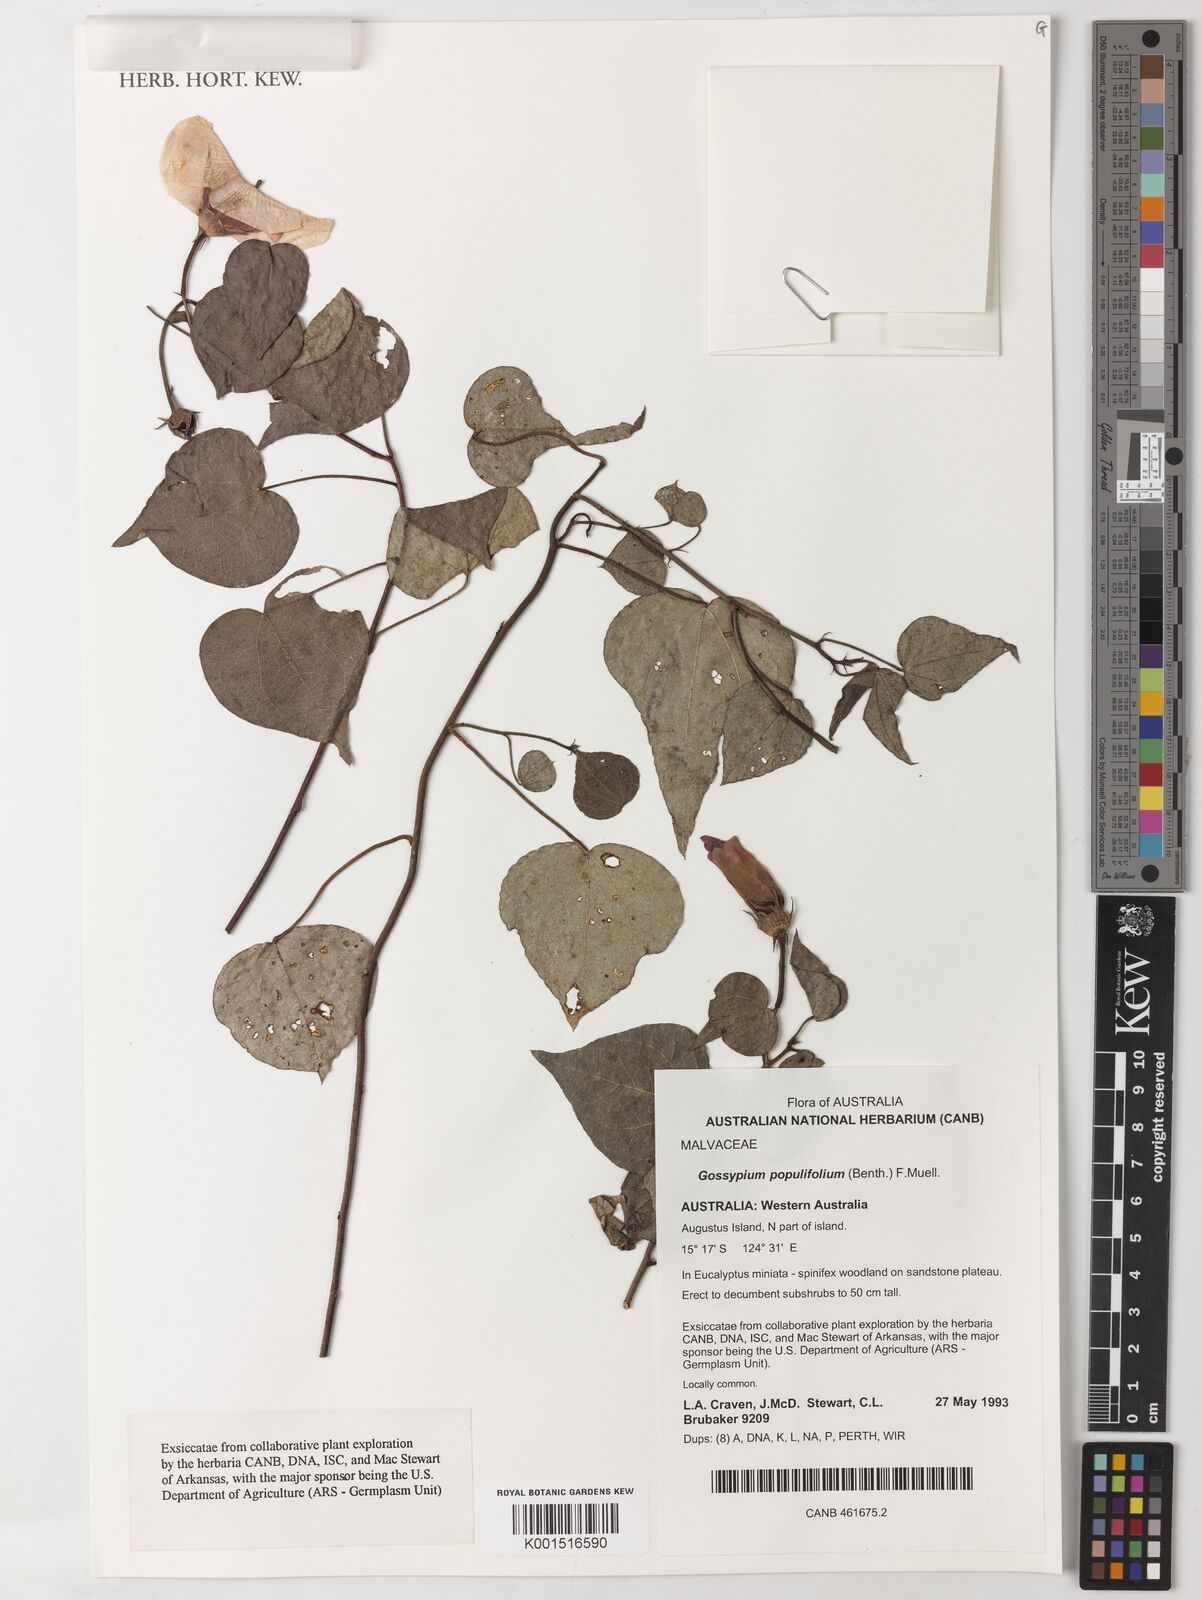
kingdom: Plantae
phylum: Tracheophyta
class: Magnoliopsida
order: Malvales
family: Malvaceae
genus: Gossypium
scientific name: Gossypium populifolium
